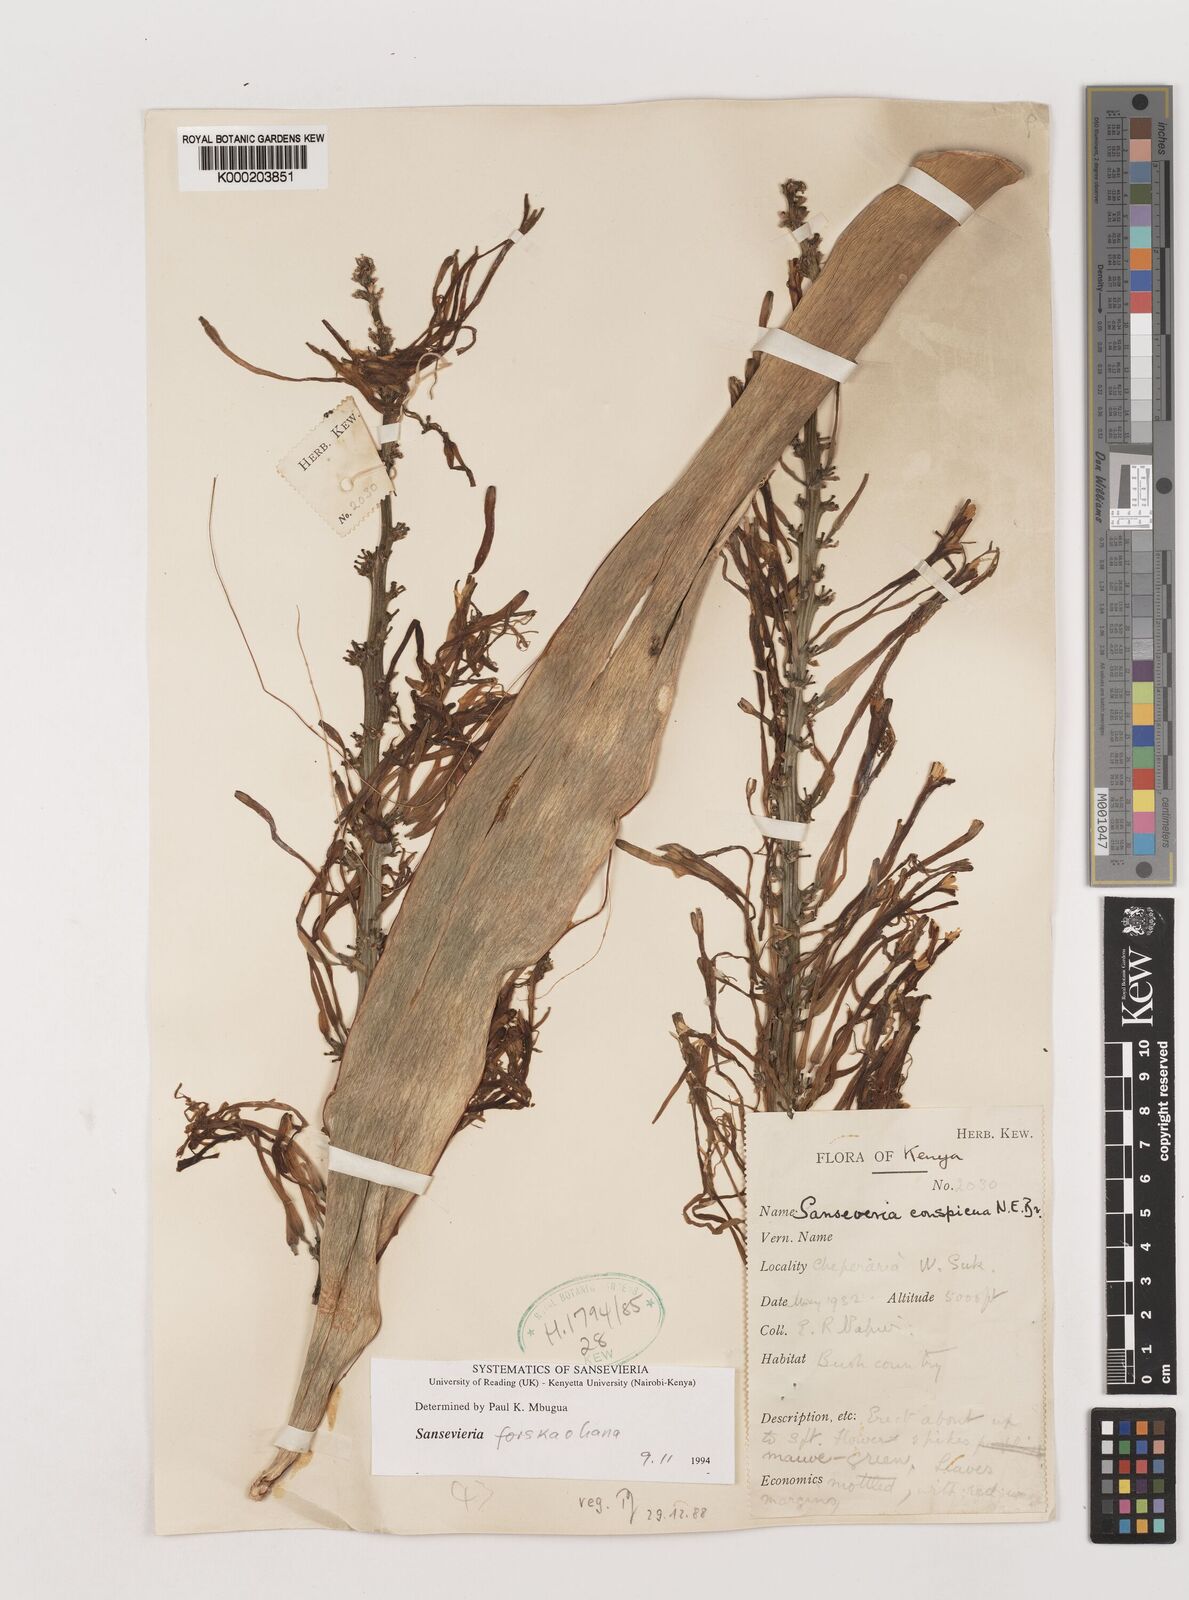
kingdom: Plantae
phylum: Tracheophyta
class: Liliopsida
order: Asparagales
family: Asparagaceae
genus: Dracaena
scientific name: Dracaena conspicua
